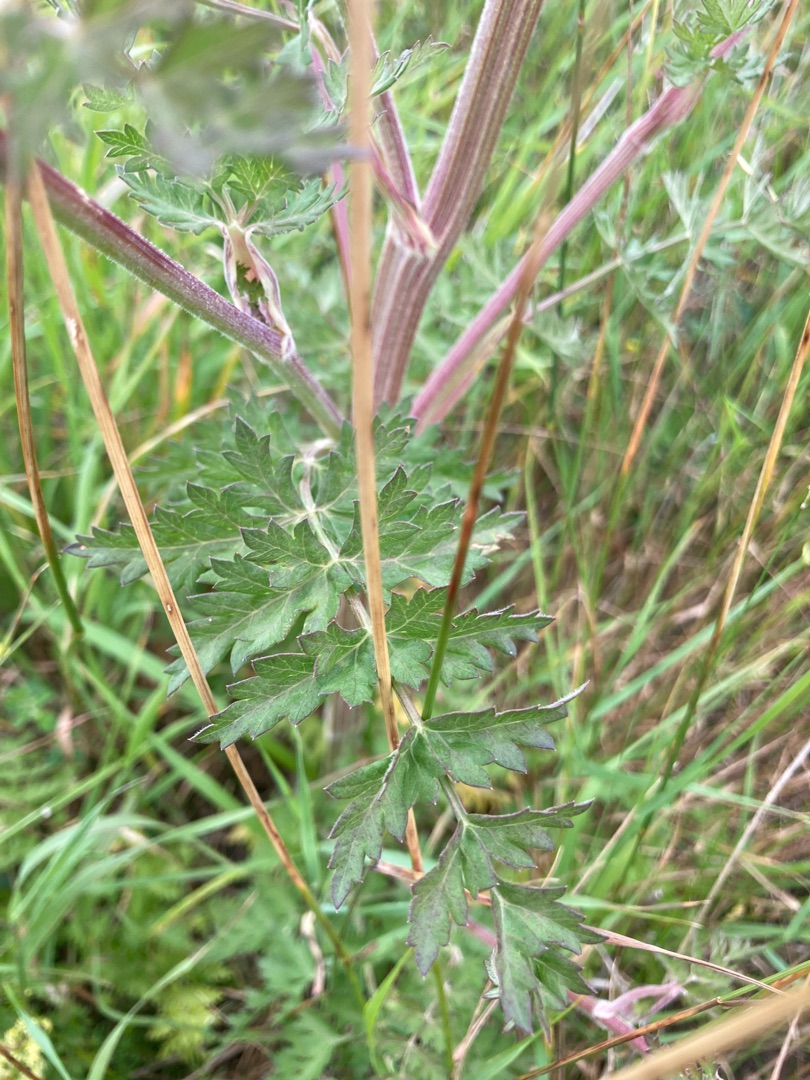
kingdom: Plantae
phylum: Tracheophyta
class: Magnoliopsida
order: Apiales
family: Apiaceae
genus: Seseli
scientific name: Seseli libanotis
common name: Hjorterod
